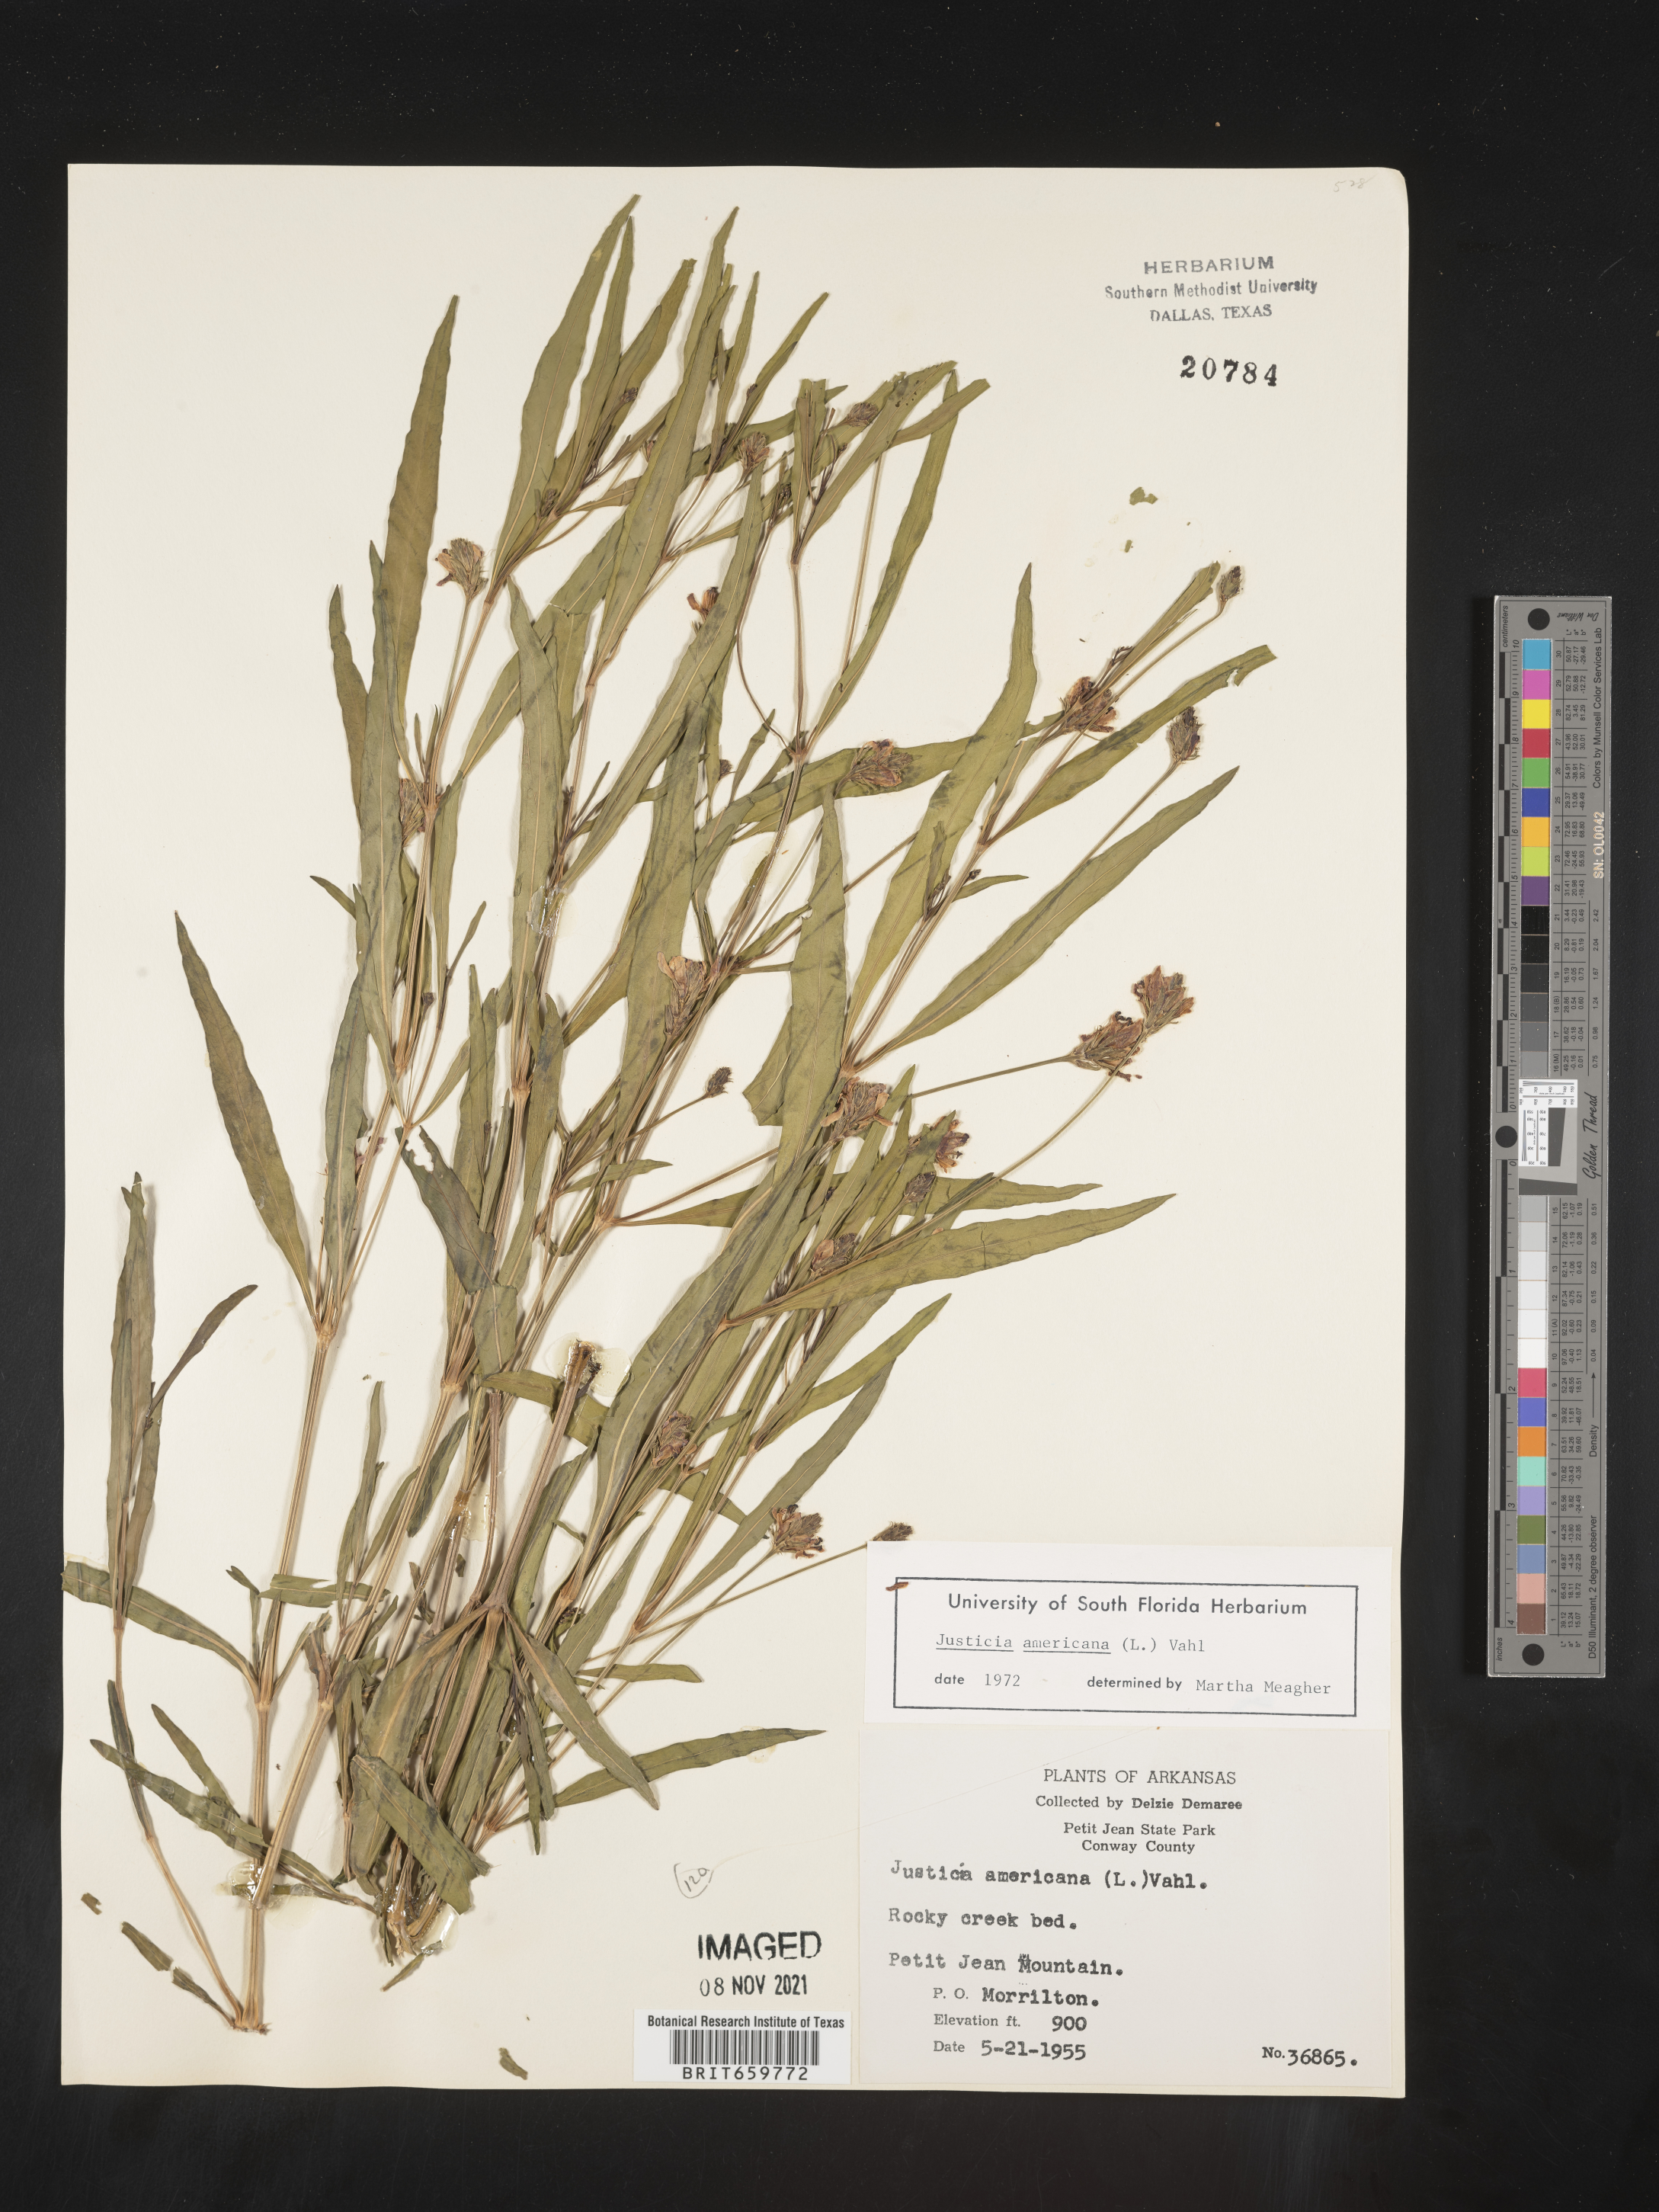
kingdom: Plantae
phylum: Tracheophyta
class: Magnoliopsida
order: Lamiales
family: Acanthaceae
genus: Dianthera
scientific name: Dianthera americana
